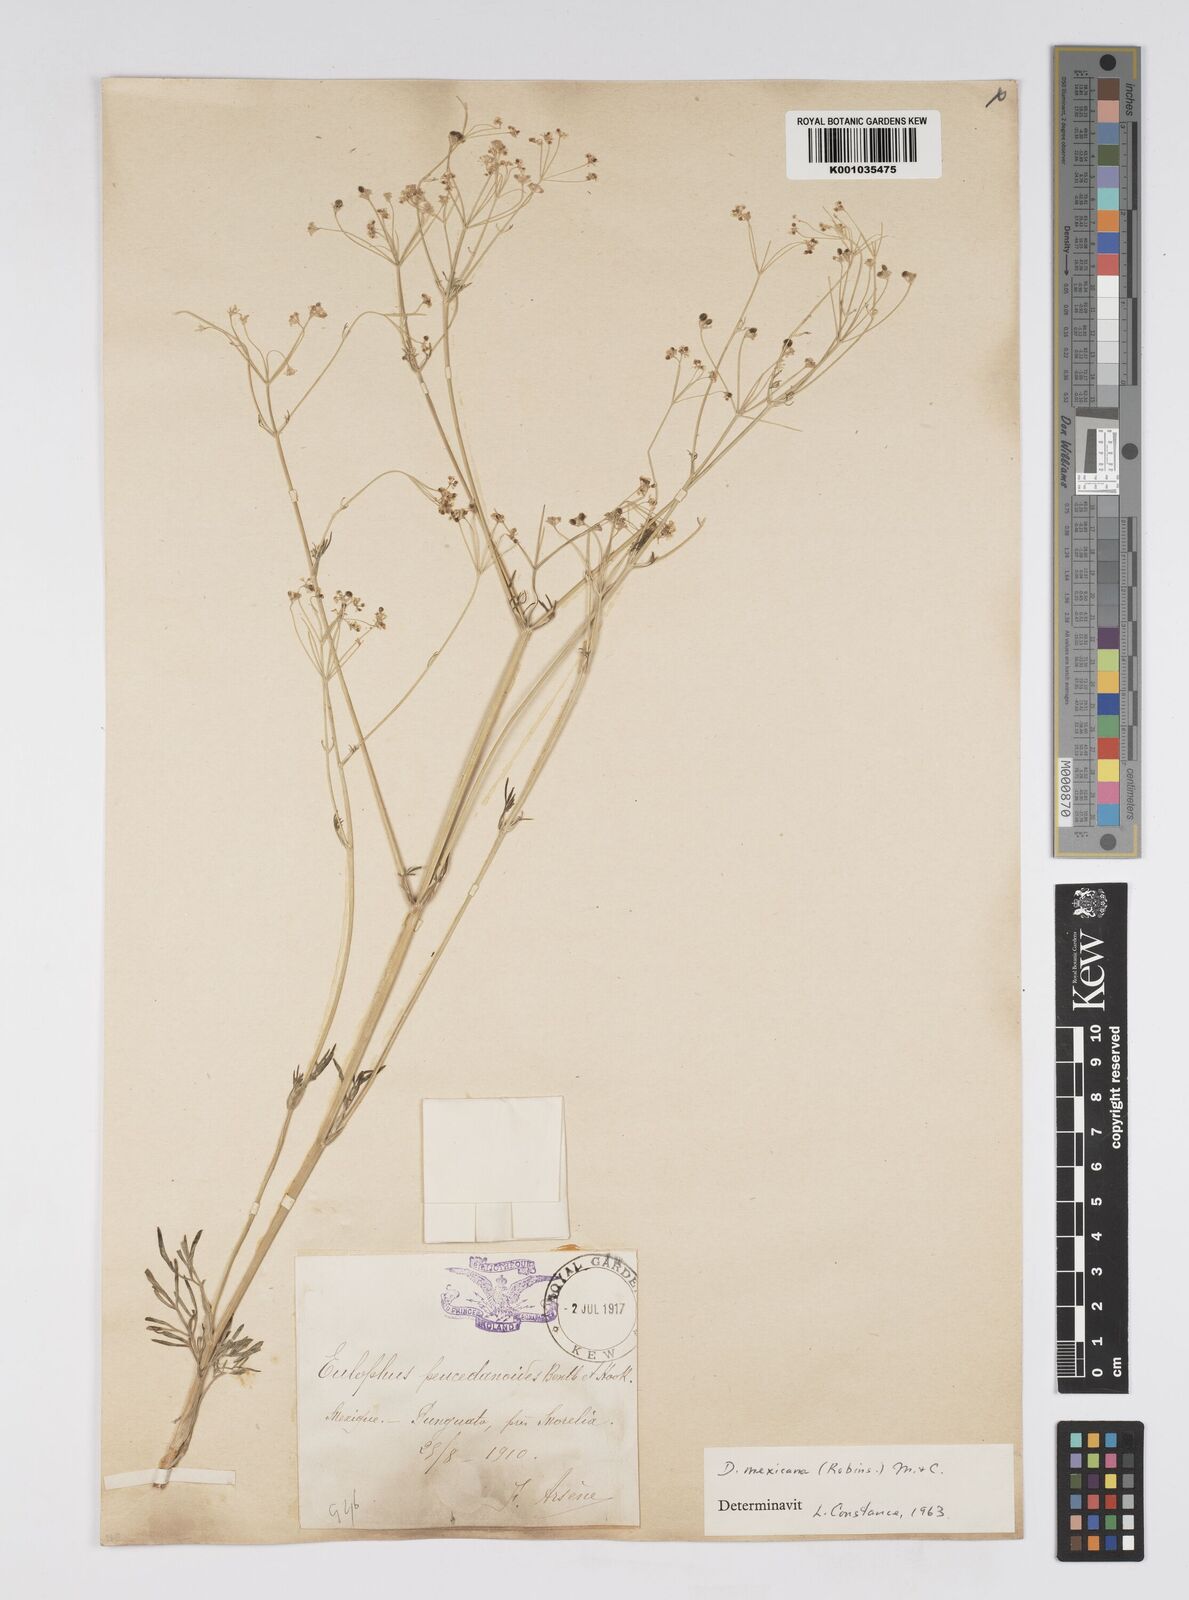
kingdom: Plantae
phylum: Tracheophyta
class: Magnoliopsida
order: Apiales
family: Apiaceae
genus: Donnellsmithia
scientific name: Donnellsmithia mexicana
